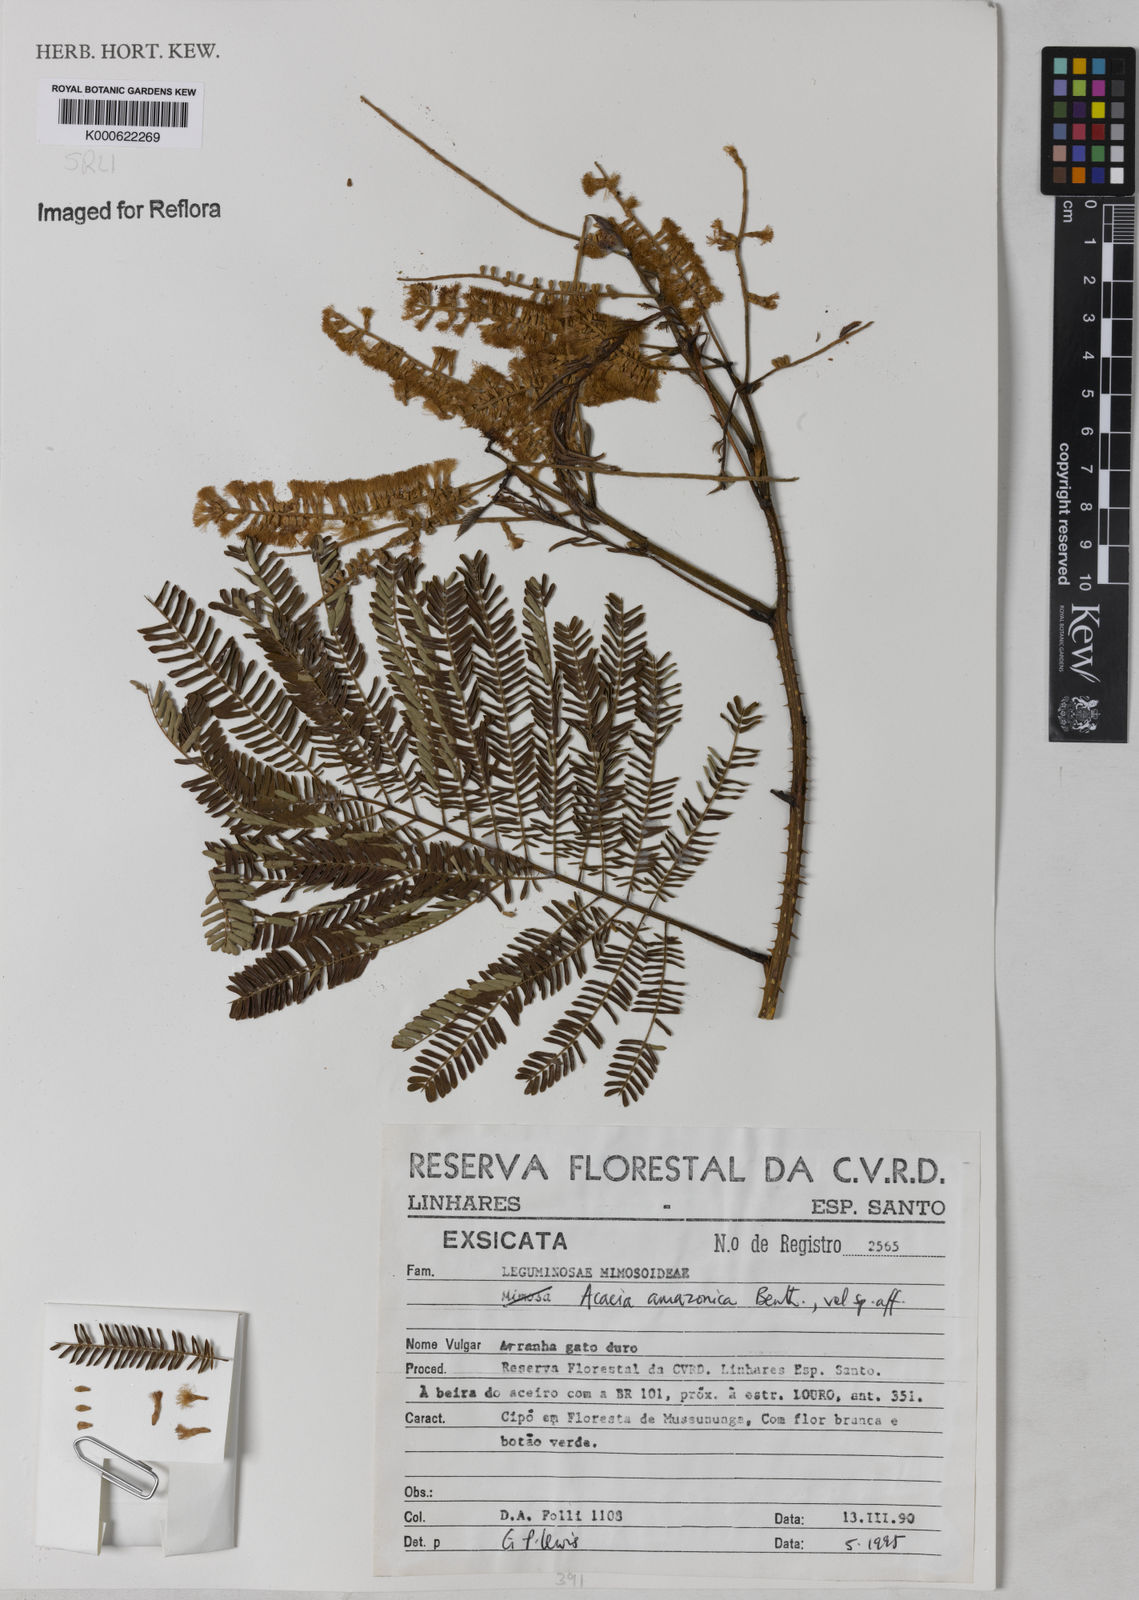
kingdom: Plantae
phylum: Tracheophyta
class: Magnoliopsida
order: Fabales
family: Fabaceae
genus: Senegalia
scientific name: Senegalia amazonica
